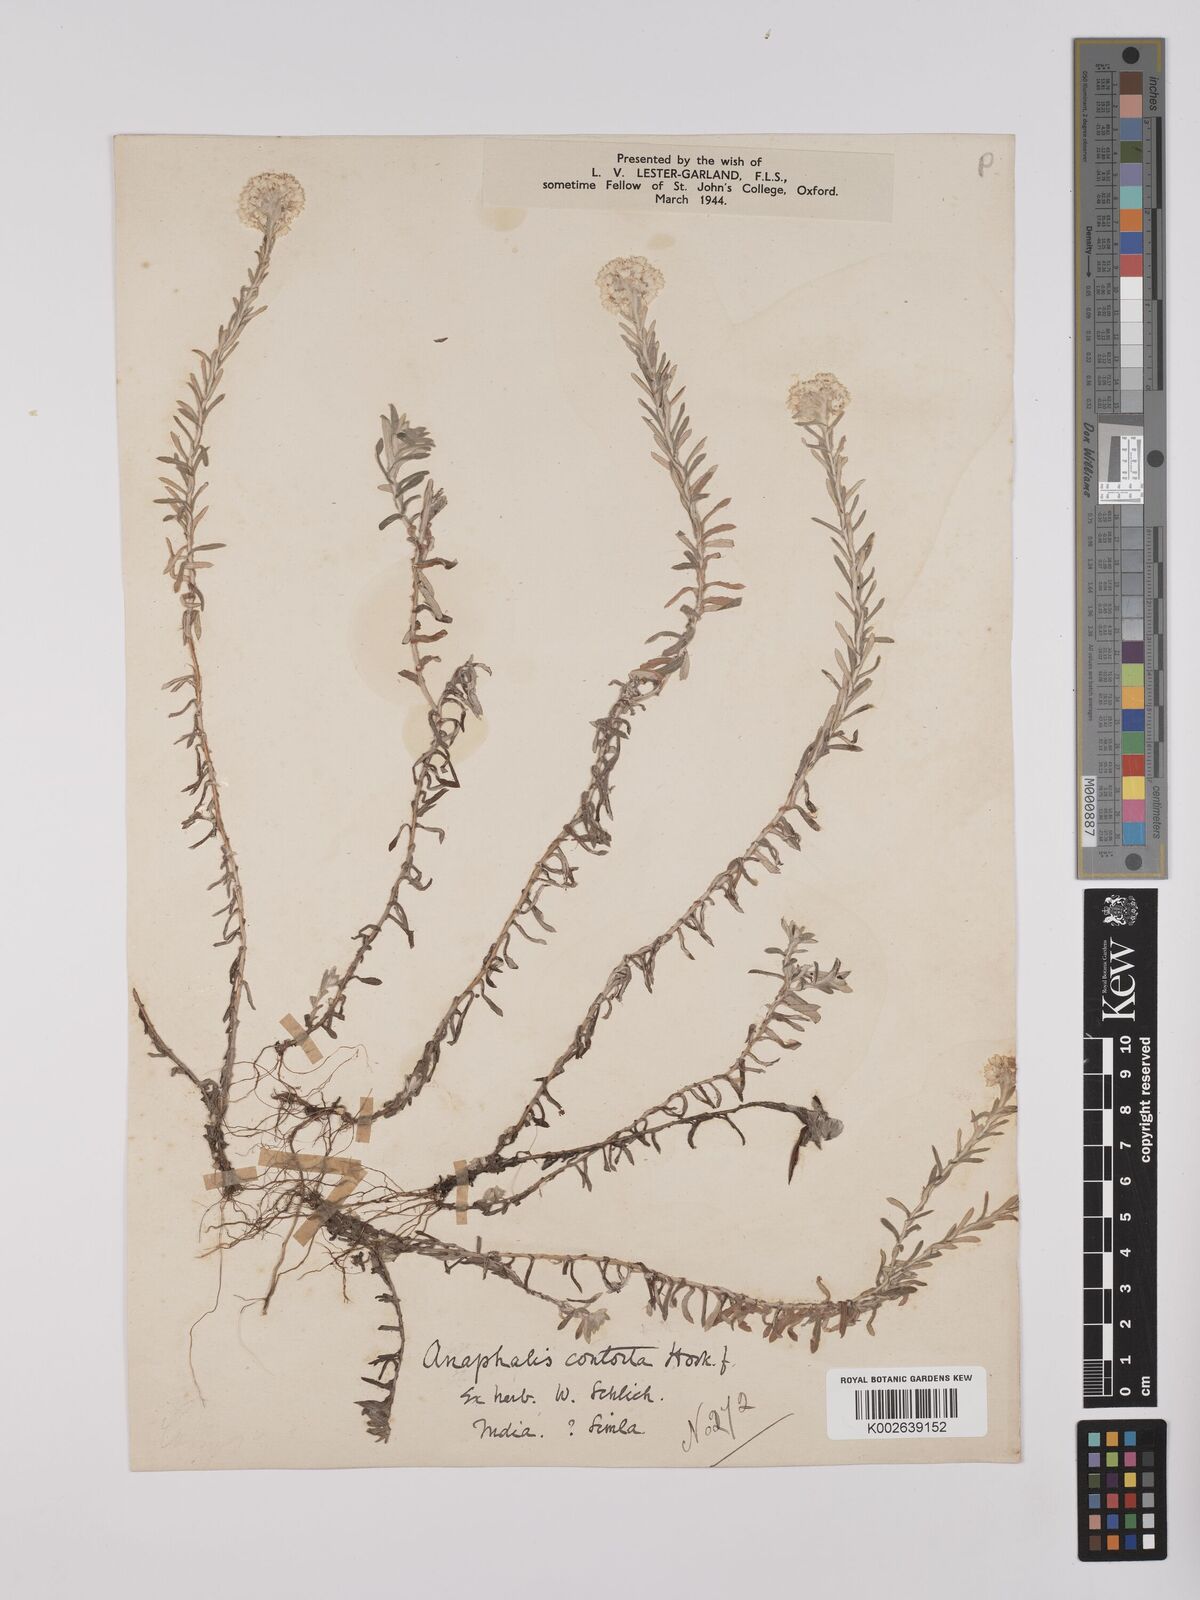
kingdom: Plantae
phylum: Tracheophyta
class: Magnoliopsida
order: Asterales
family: Asteraceae
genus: Anaphalis
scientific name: Anaphalis contorta
